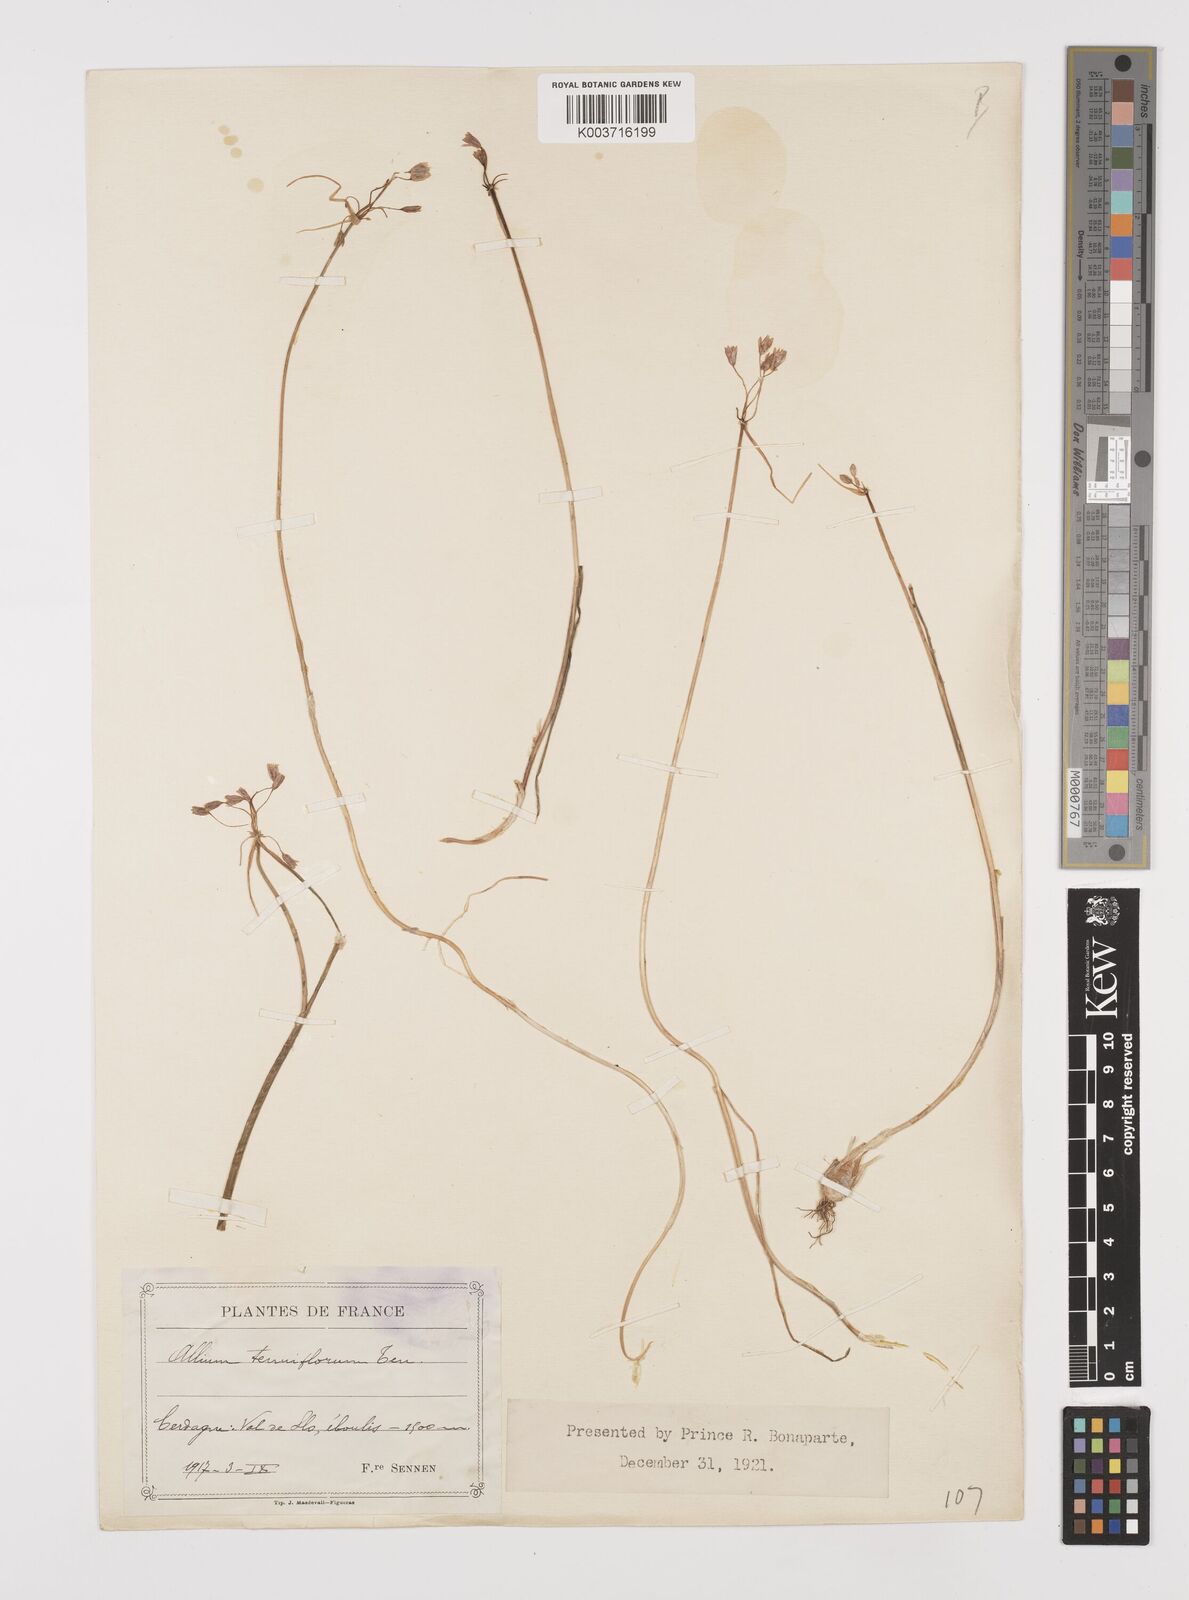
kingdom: Plantae
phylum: Tracheophyta
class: Liliopsida
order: Asparagales
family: Amaryllidaceae
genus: Allium
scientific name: Allium tenuiflorum
